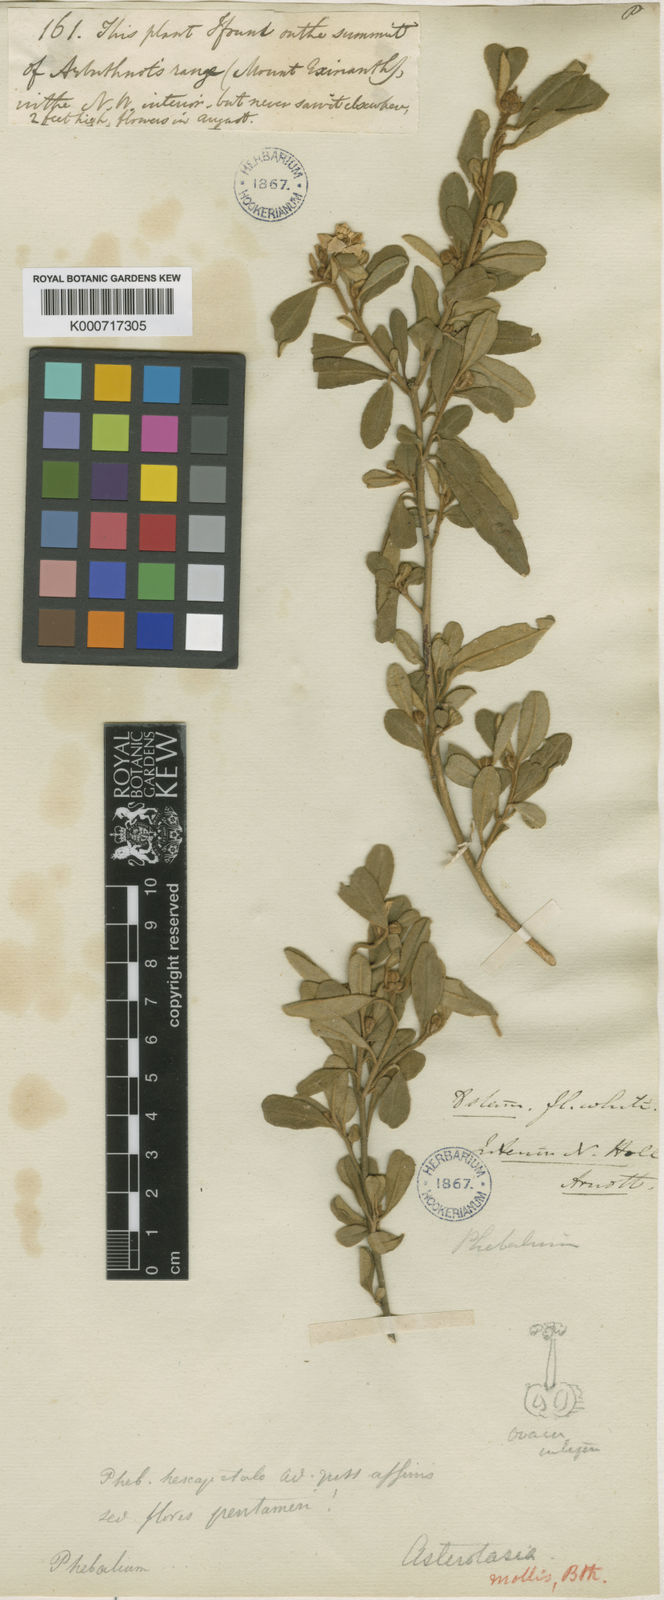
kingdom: Plantae
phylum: Tracheophyta
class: Magnoliopsida
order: Sapindales
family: Rutaceae
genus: Asterolasia
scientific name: Asterolasia hexapetala
